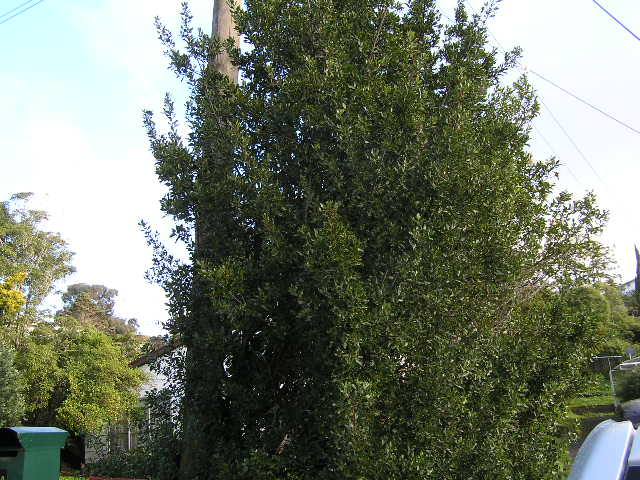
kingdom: Plantae
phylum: Tracheophyta
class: Magnoliopsida
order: Rosales
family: Rhamnaceae
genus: Rhamnus
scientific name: Rhamnus alaternus
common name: Mediterranean buckthorn
